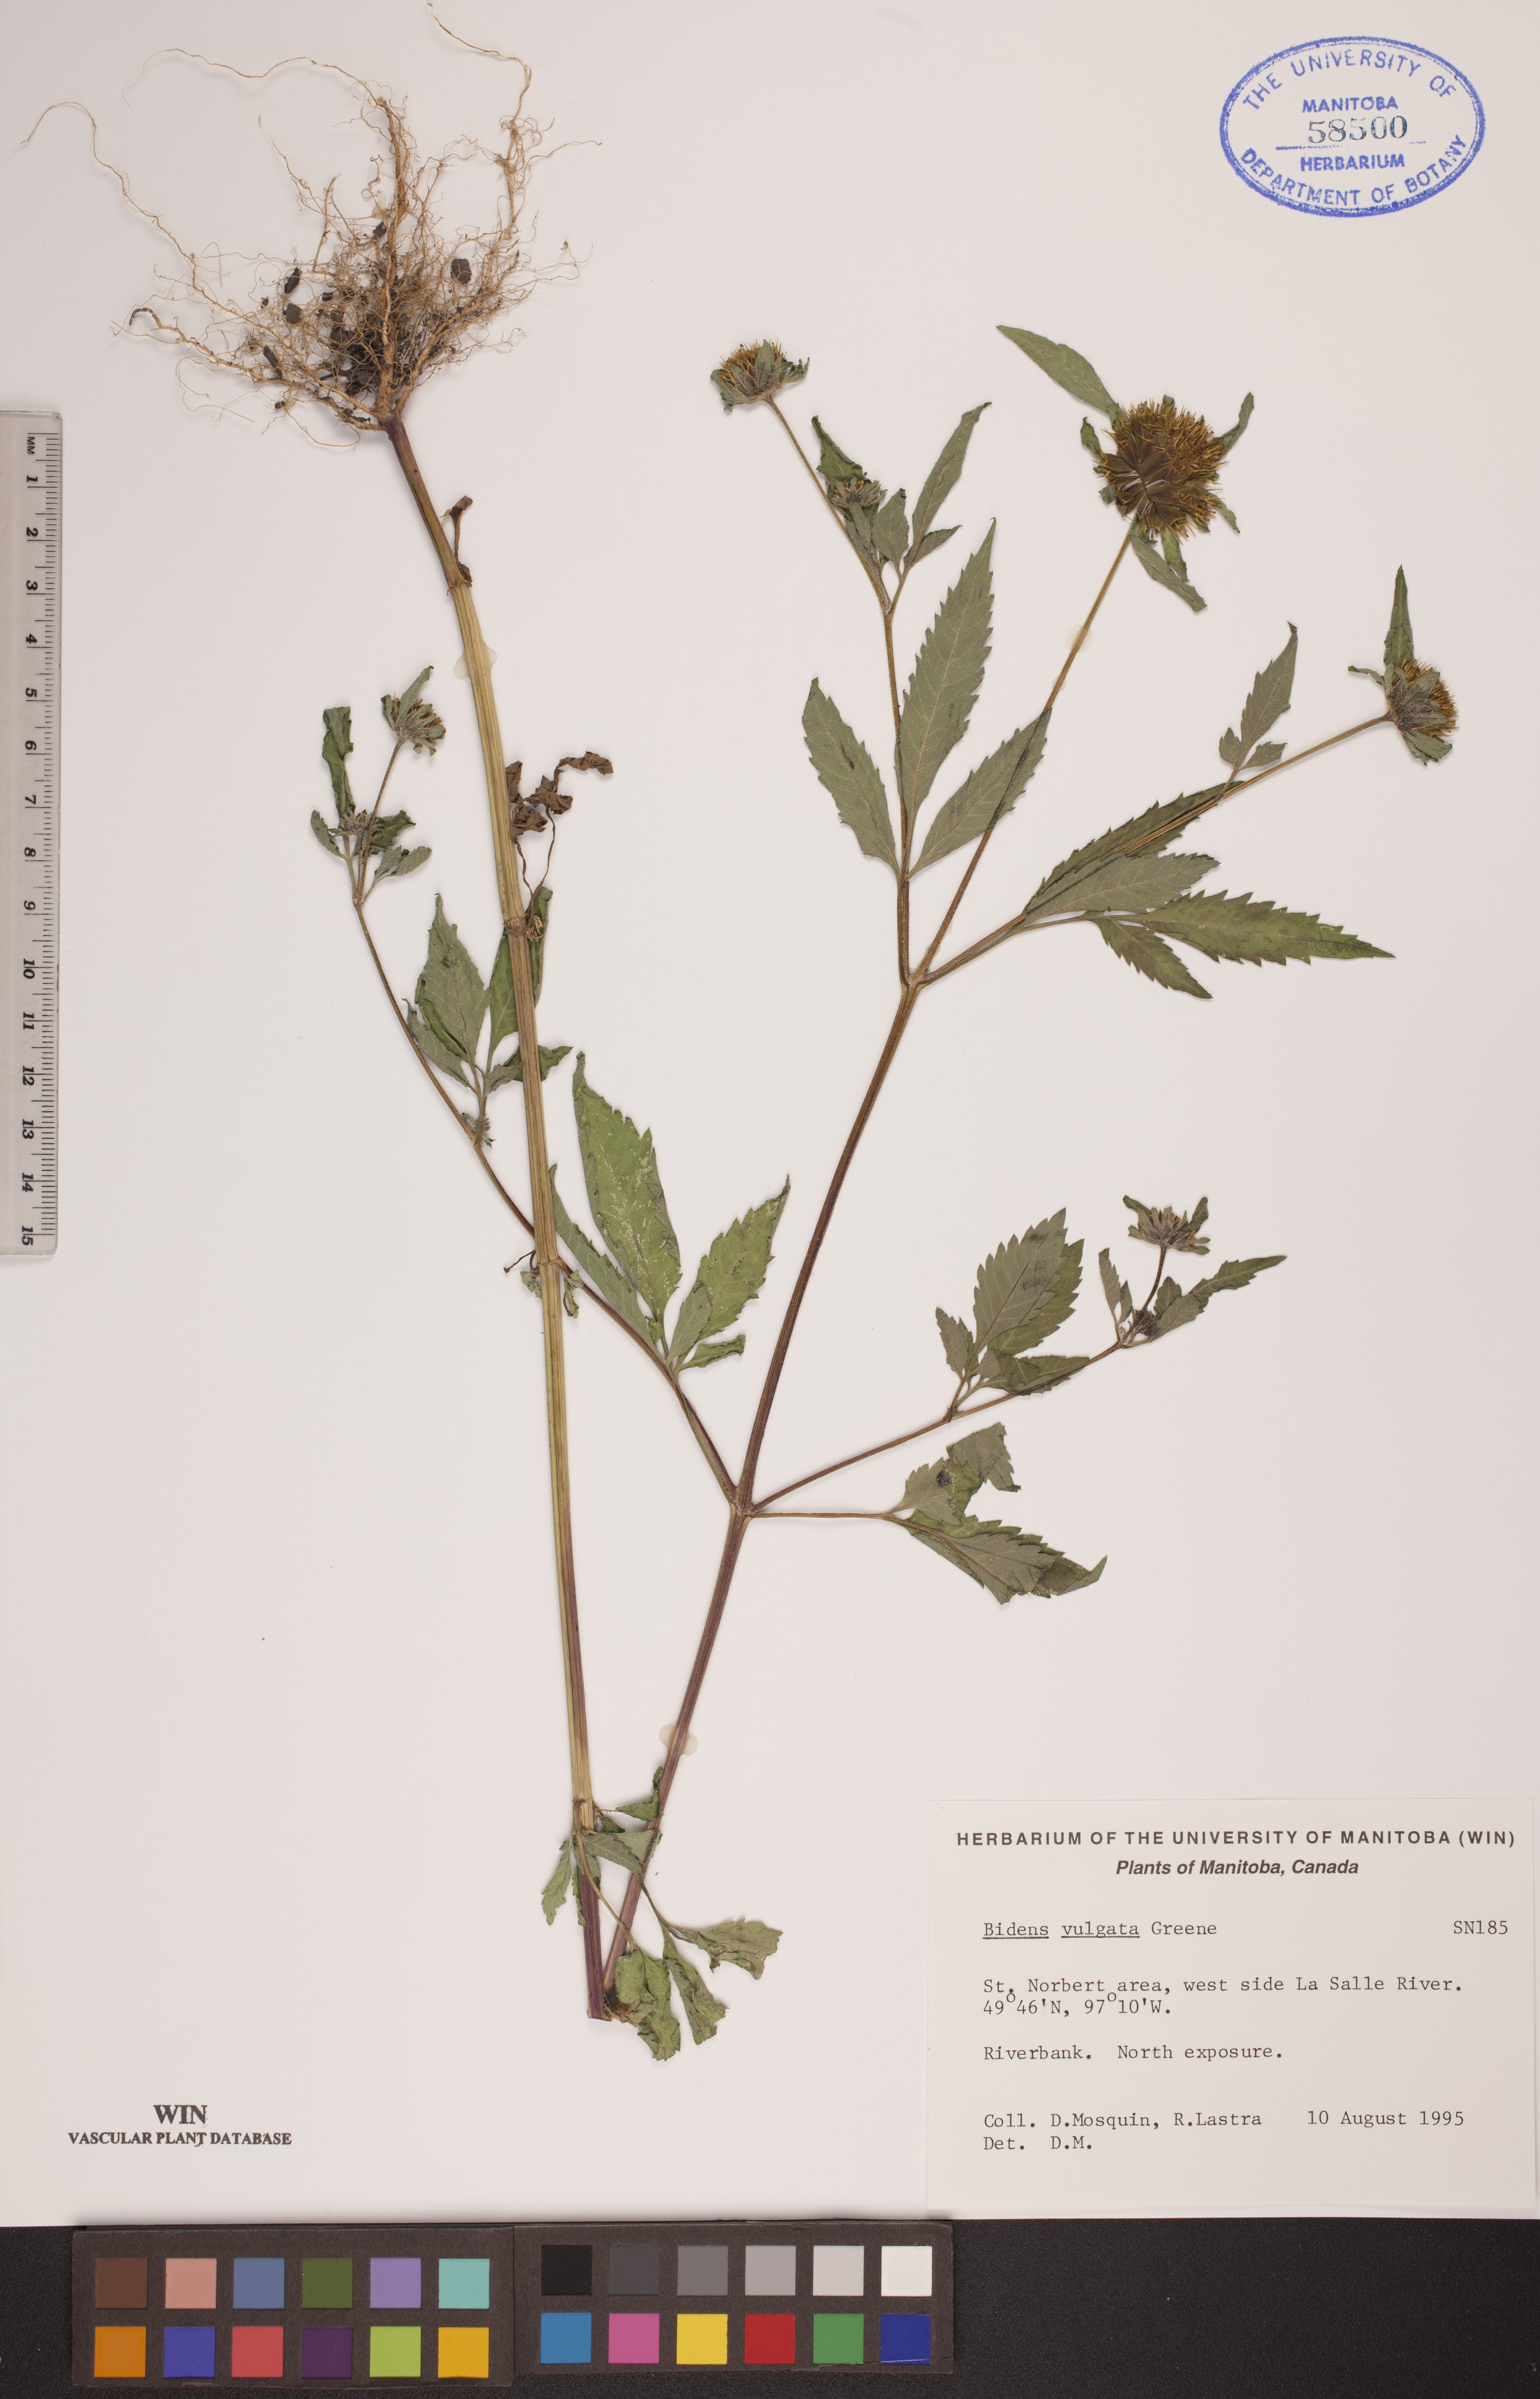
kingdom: Plantae
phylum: Tracheophyta
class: Magnoliopsida
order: Asterales
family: Asteraceae
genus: Bidens
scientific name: Bidens vulgata
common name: Tall beggarticks
